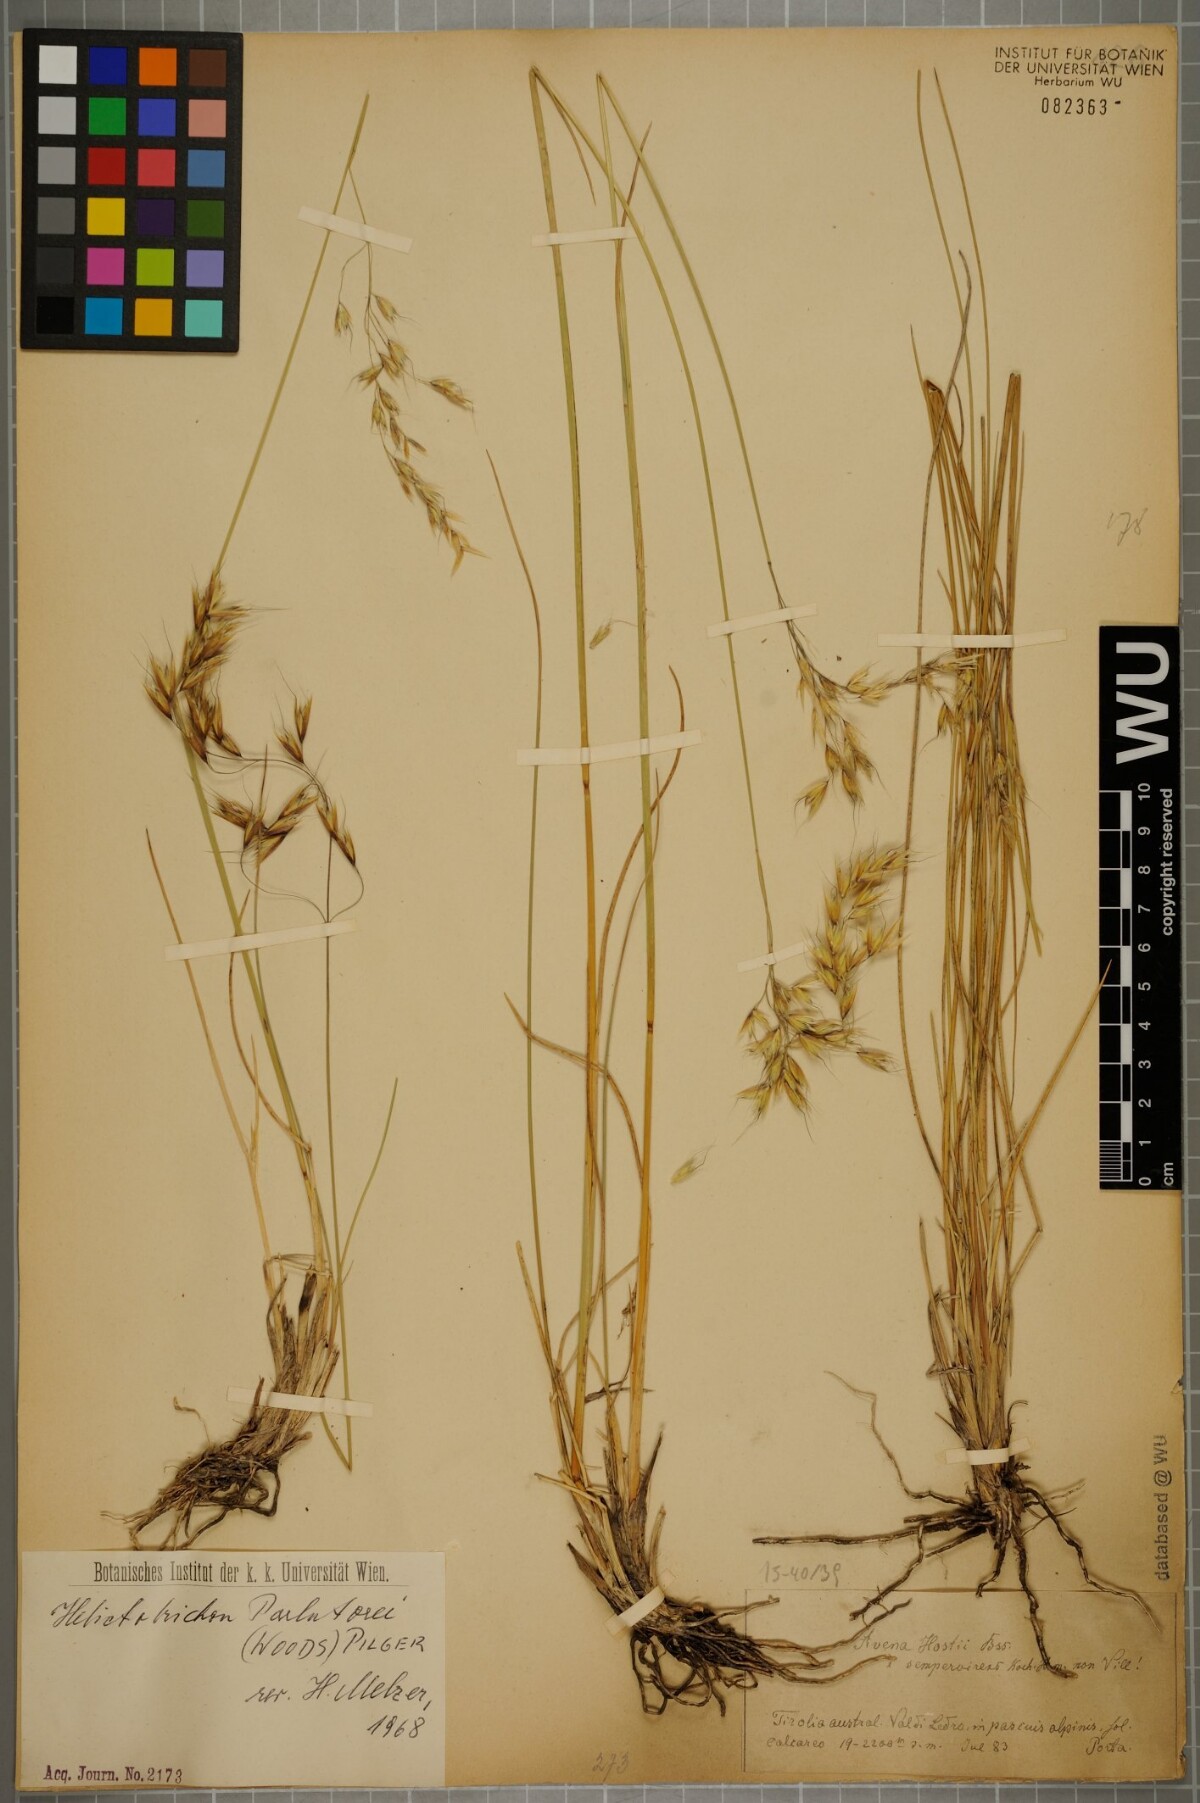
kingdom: Plantae
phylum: Tracheophyta
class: Liliopsida
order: Poales
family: Poaceae
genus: Helictotrichon
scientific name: Helictotrichon parlatorei
